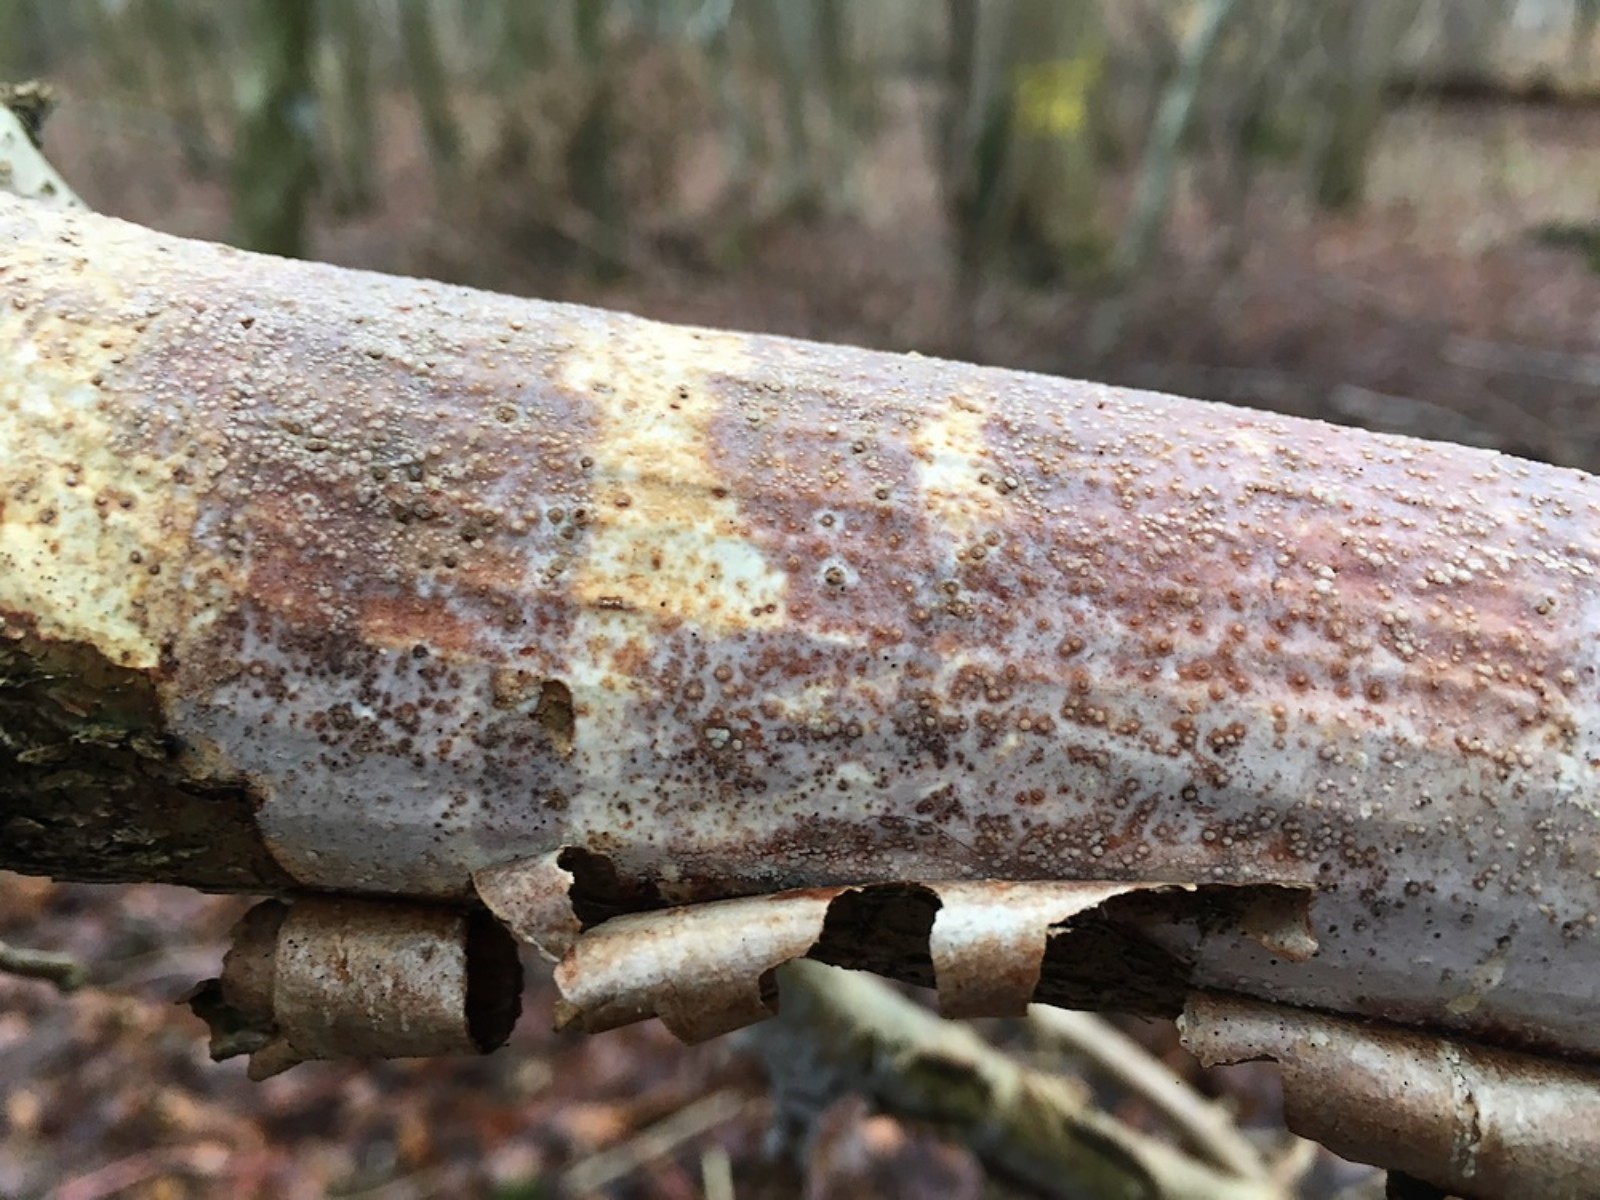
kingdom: Fungi
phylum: Basidiomycota
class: Agaricomycetes
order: Corticiales
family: Vuilleminiaceae
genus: Vuilleminia
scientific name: Vuilleminia coryli
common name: hassel-barksprænger
